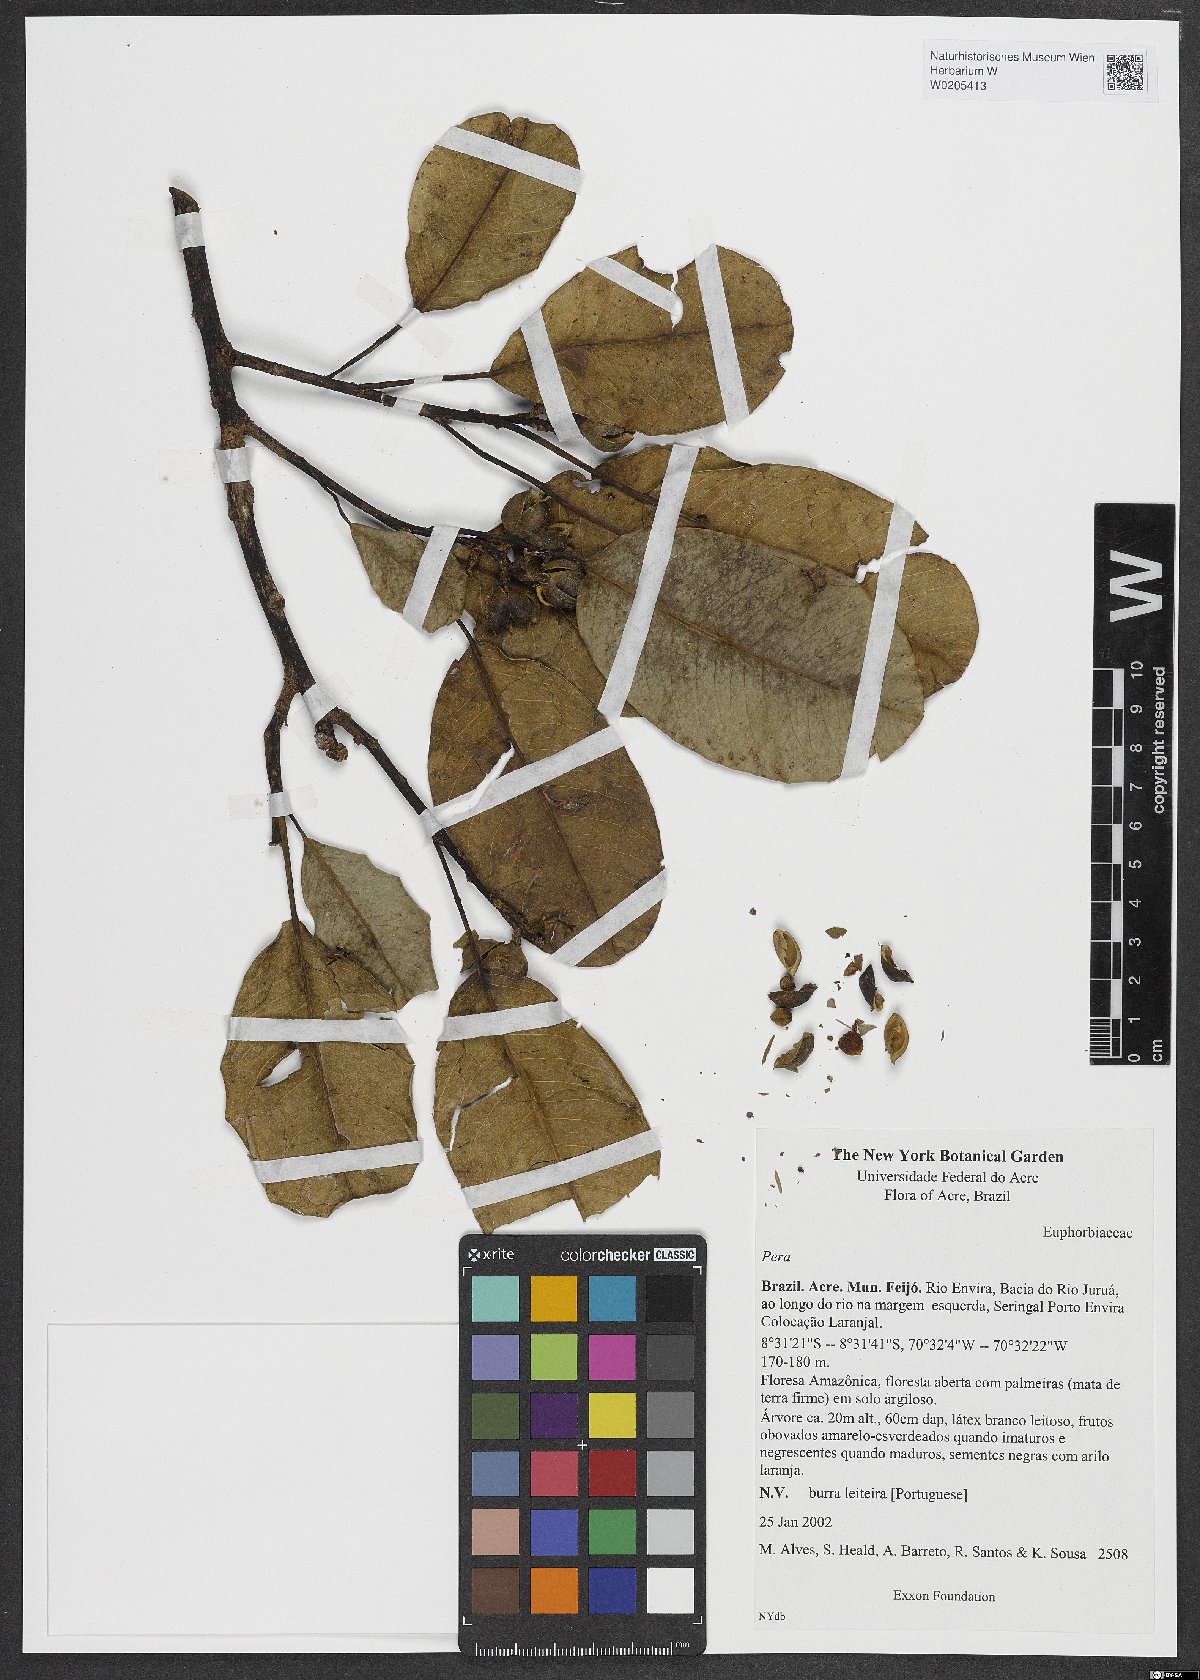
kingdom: Plantae
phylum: Tracheophyta
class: Magnoliopsida
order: Malpighiales
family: Peraceae
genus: Pera
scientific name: Pera
